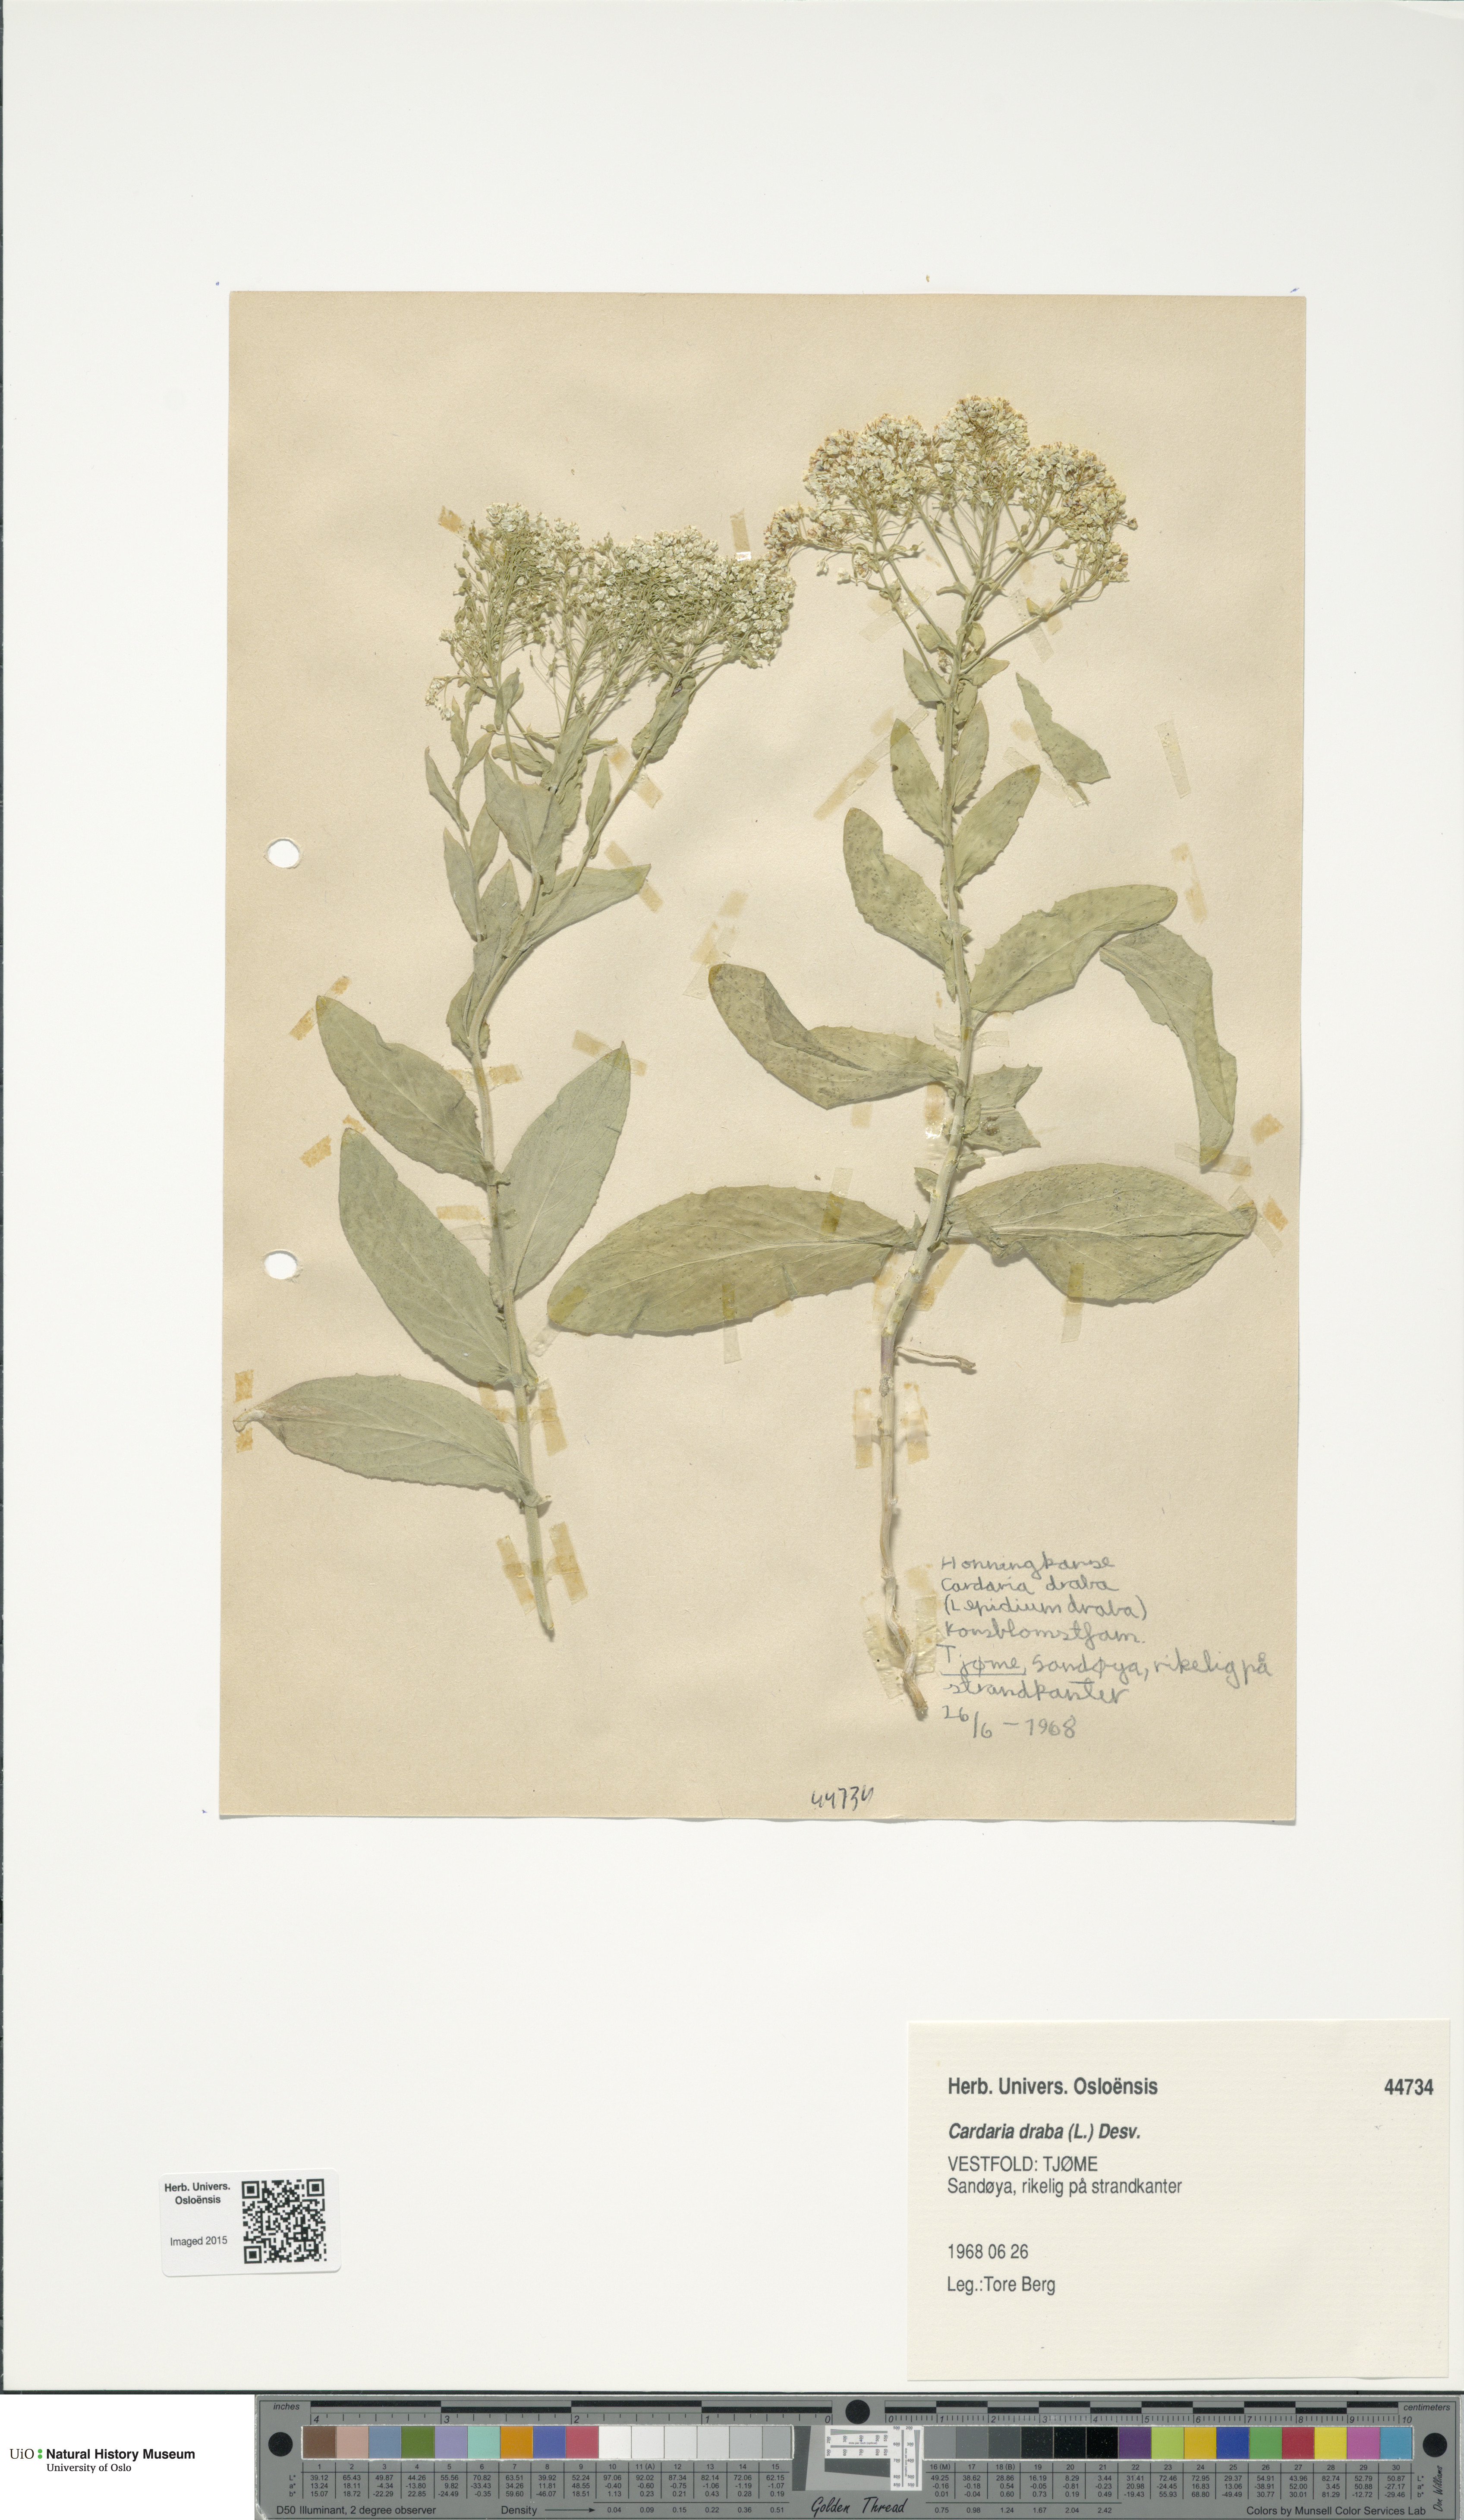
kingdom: Plantae
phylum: Tracheophyta
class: Magnoliopsida
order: Brassicales
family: Brassicaceae
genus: Lepidium
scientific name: Lepidium draba
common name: Hoary cress
